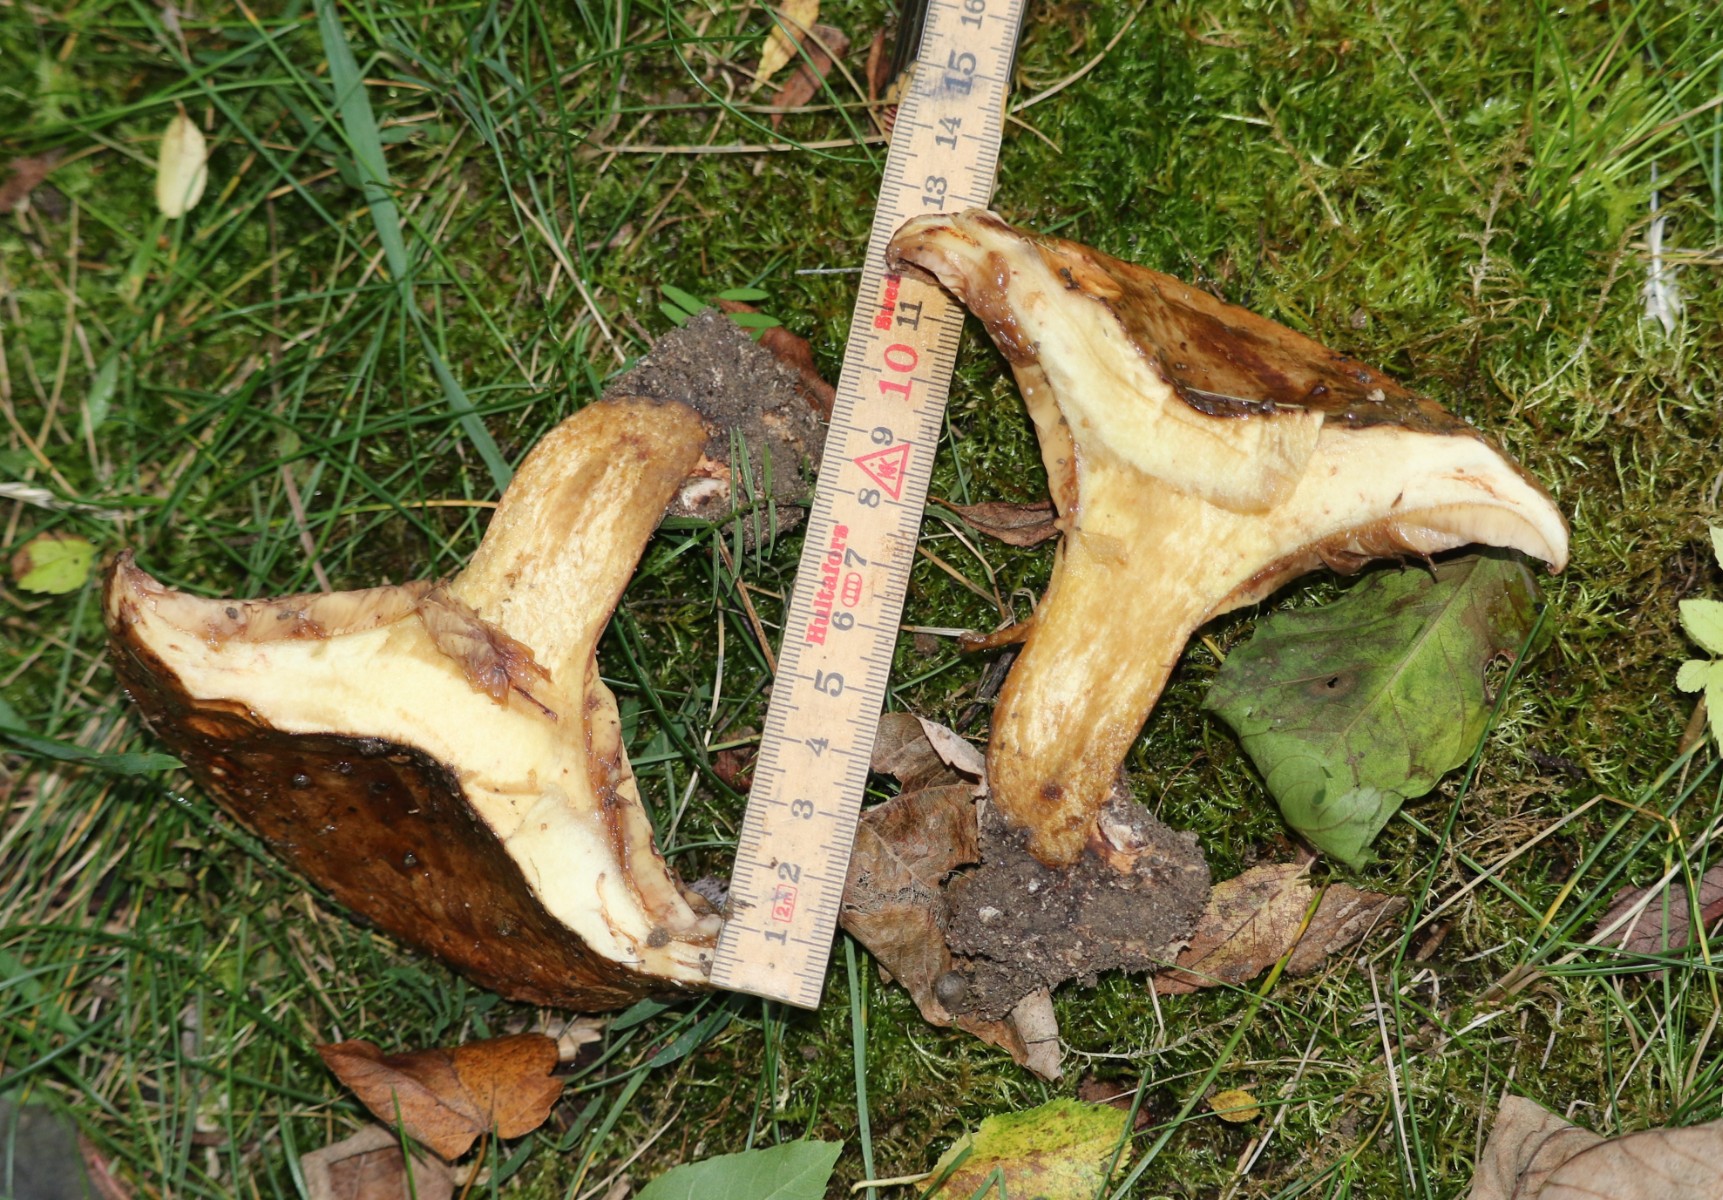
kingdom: Fungi
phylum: Basidiomycota
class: Agaricomycetes
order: Boletales
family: Paxillaceae
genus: Paxillus
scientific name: Paxillus
